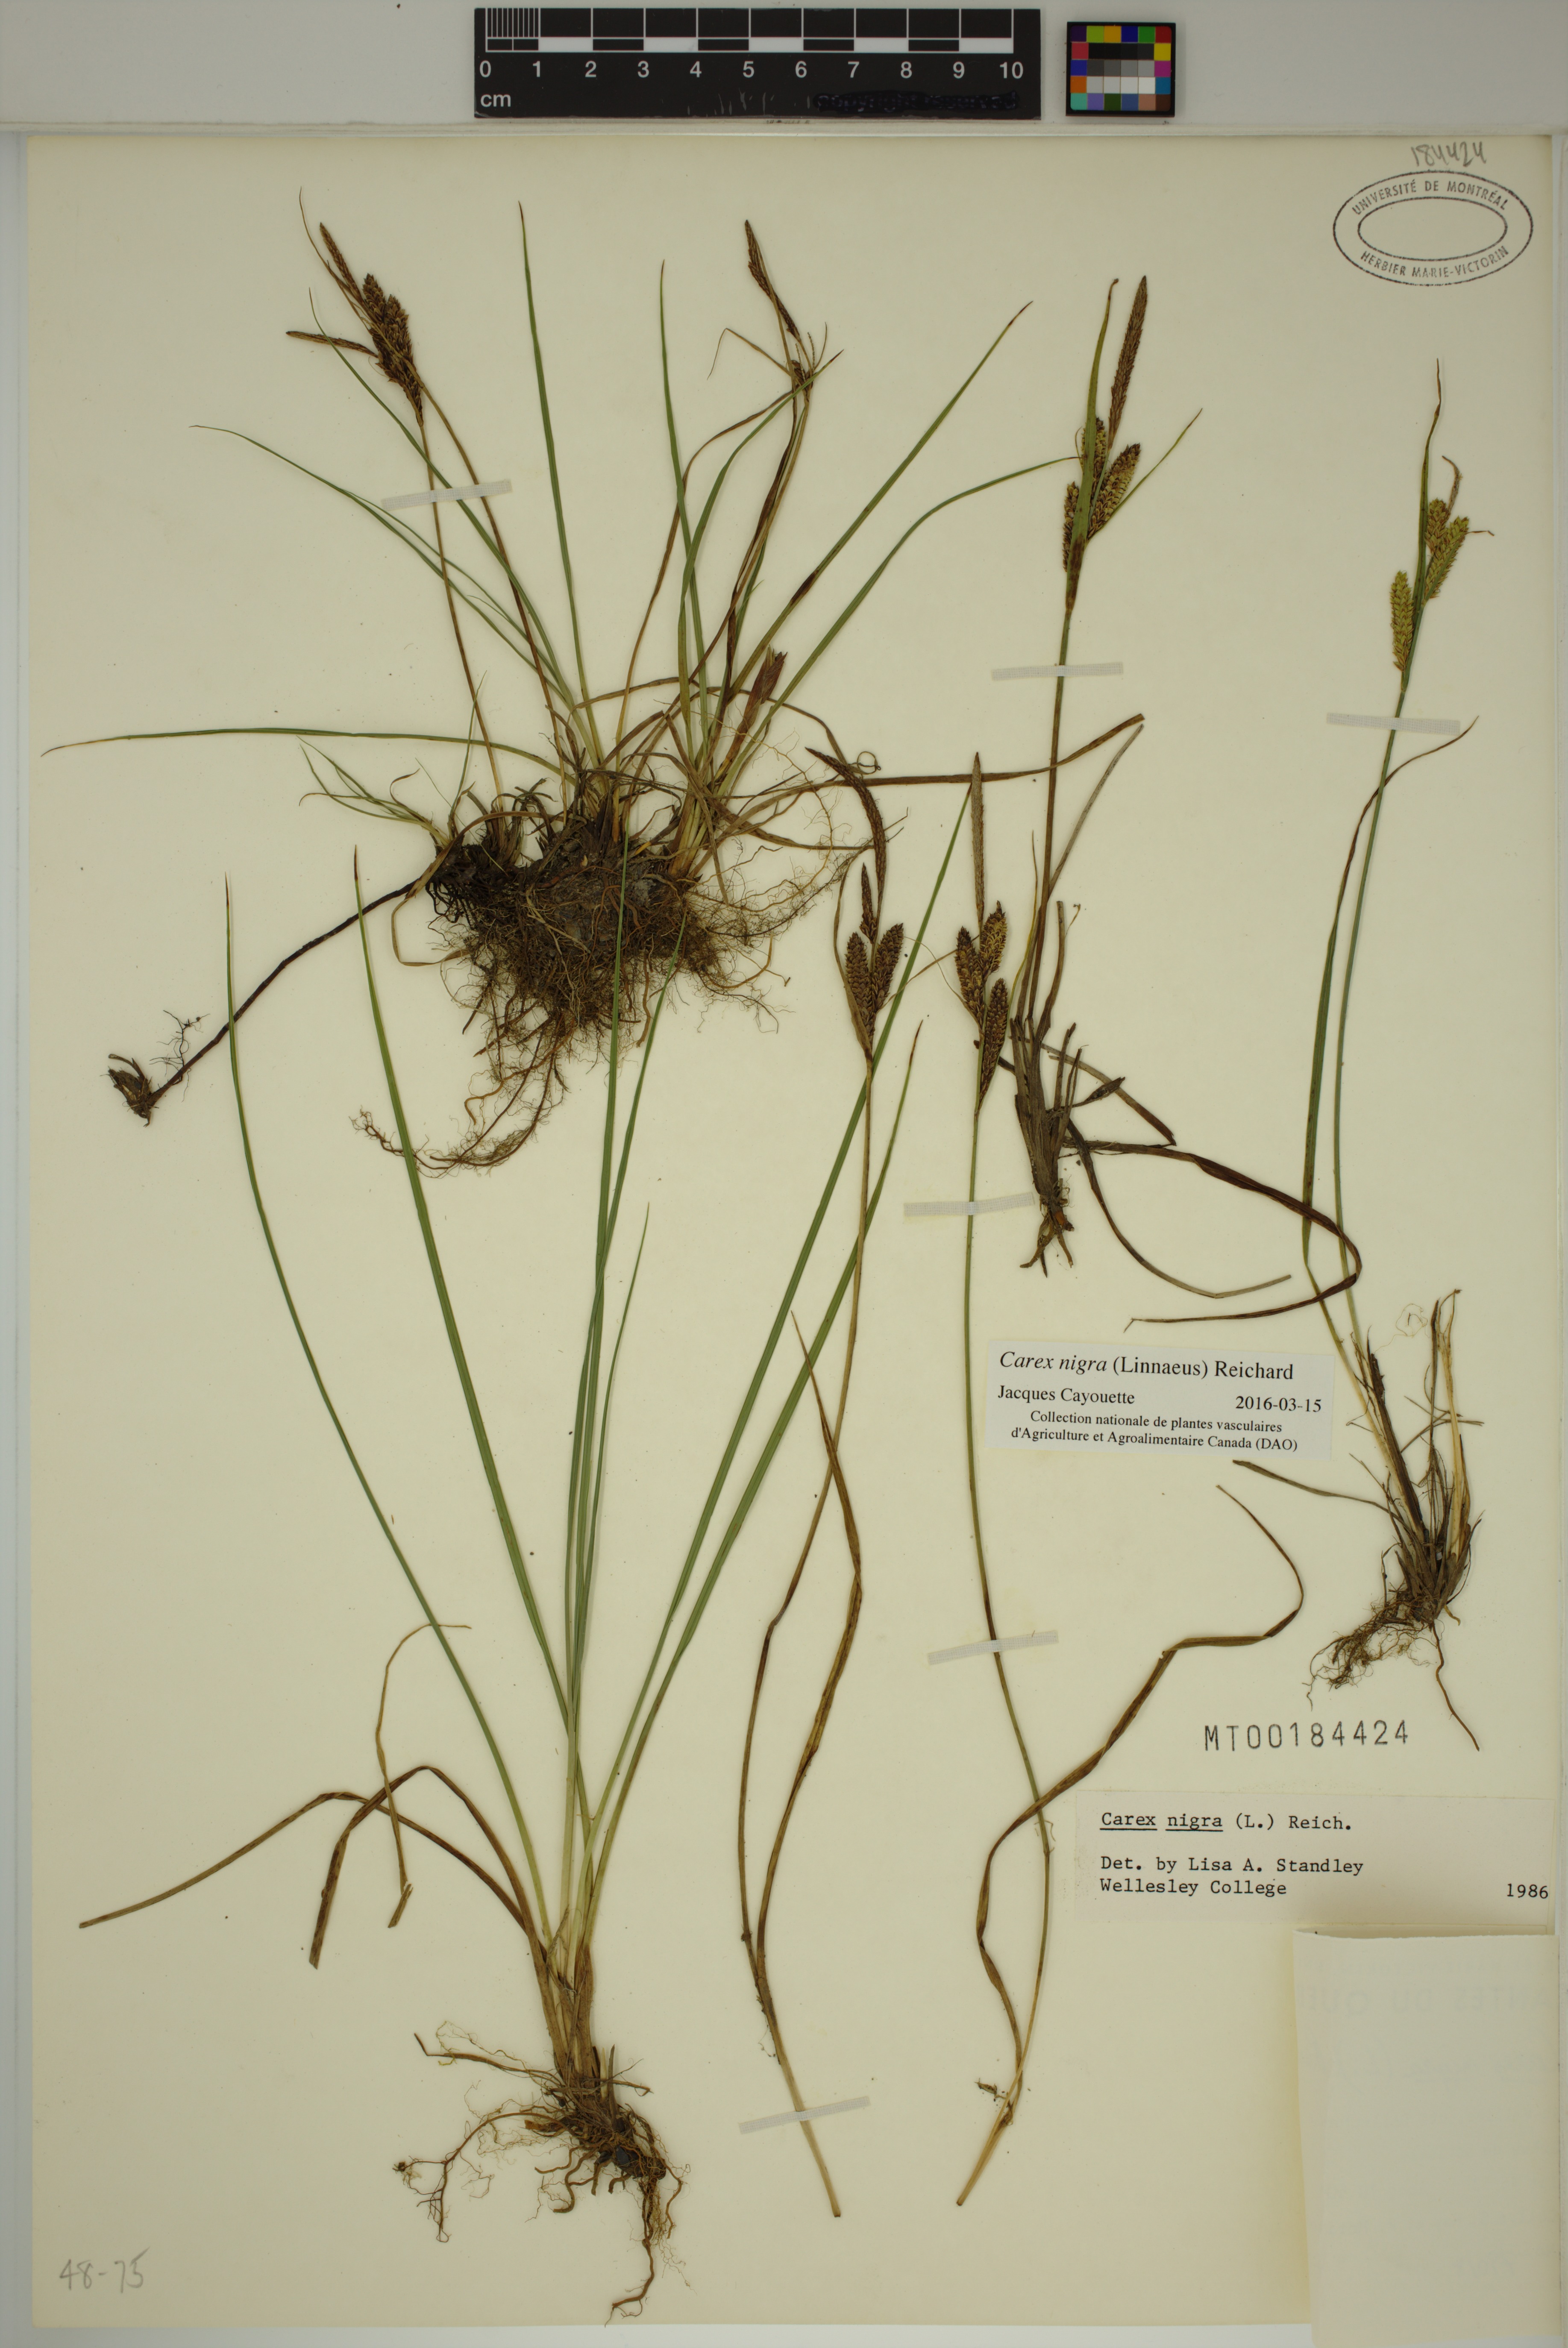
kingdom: Plantae
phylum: Tracheophyta
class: Liliopsida
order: Poales
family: Cyperaceae
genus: Carex
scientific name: Carex nigra
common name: Common sedge
